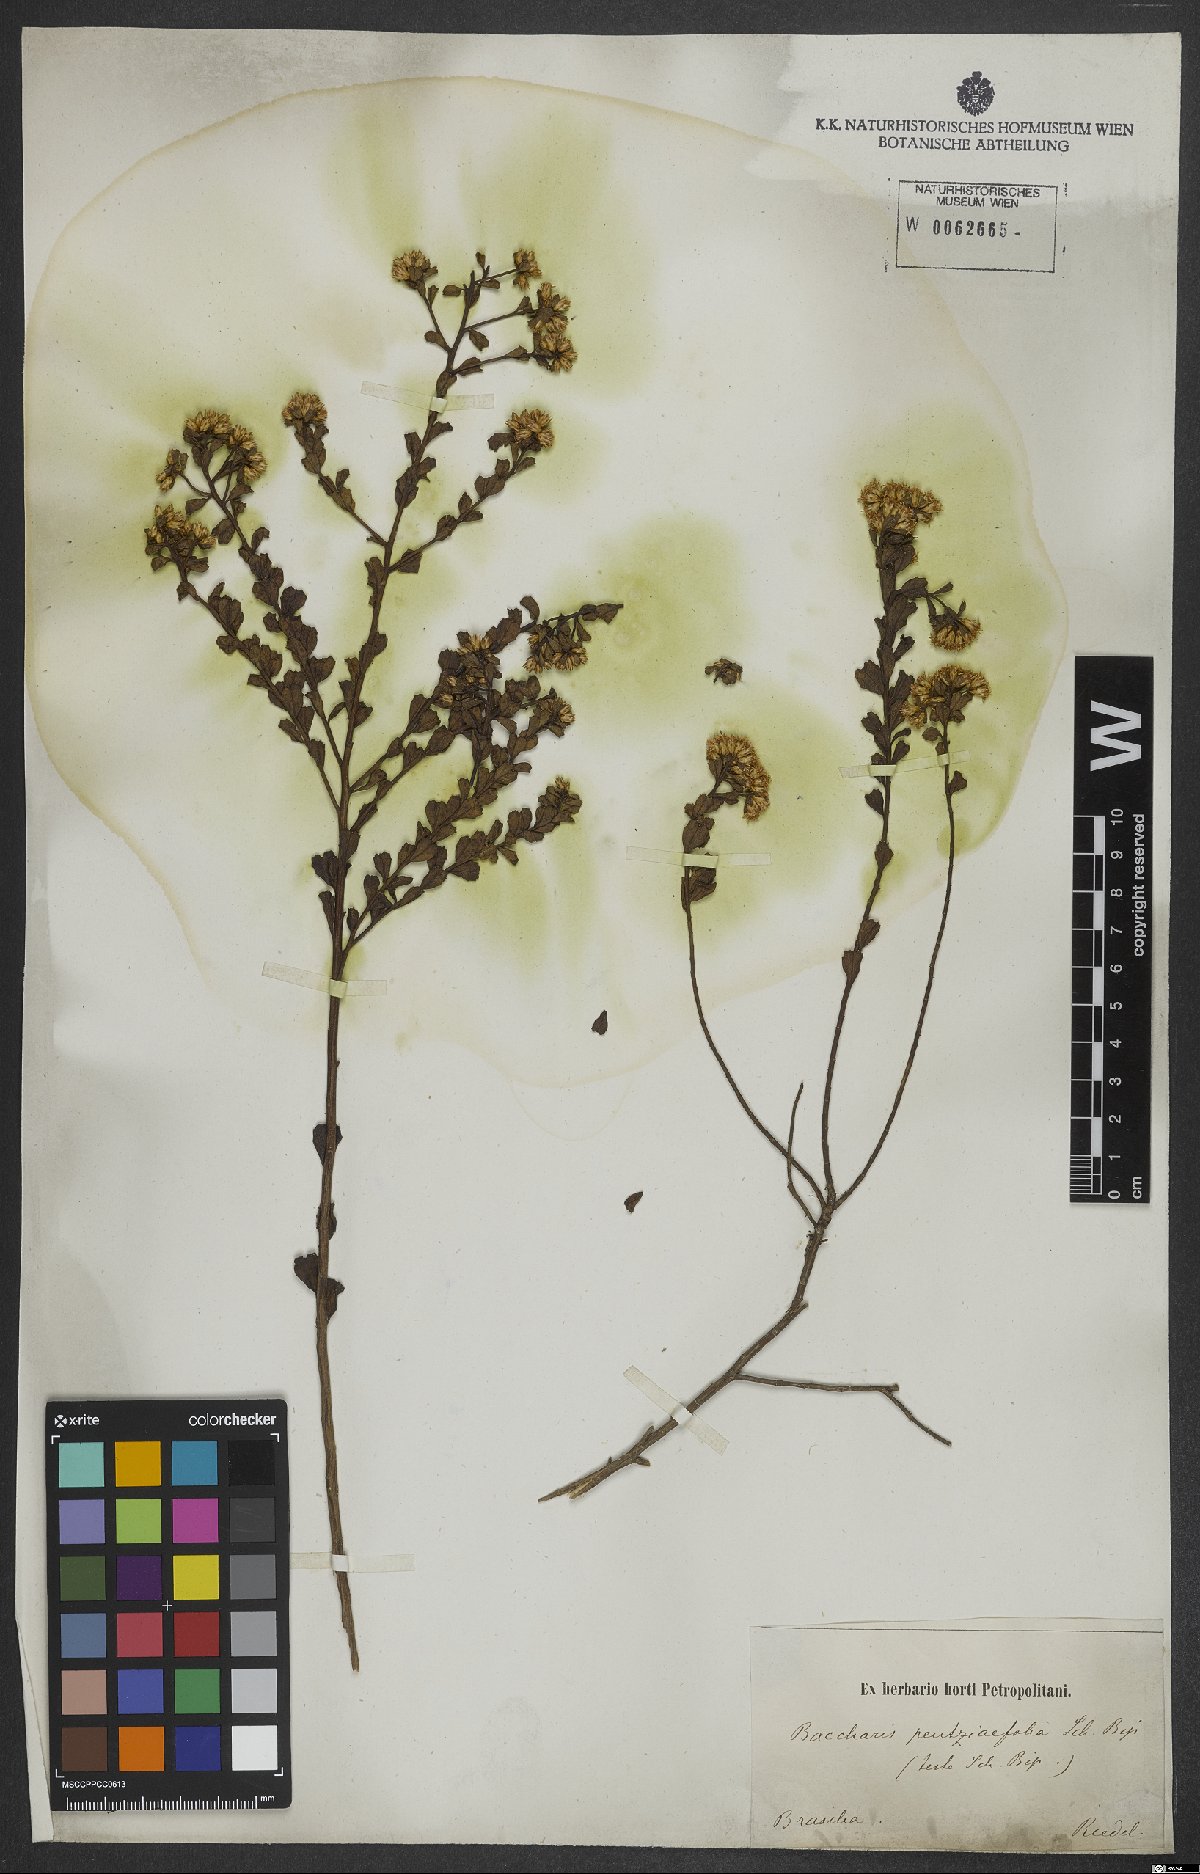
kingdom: Plantae
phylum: Tracheophyta
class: Magnoliopsida
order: Asterales
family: Asteraceae
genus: Baccharis
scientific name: Baccharis pentziifolia
